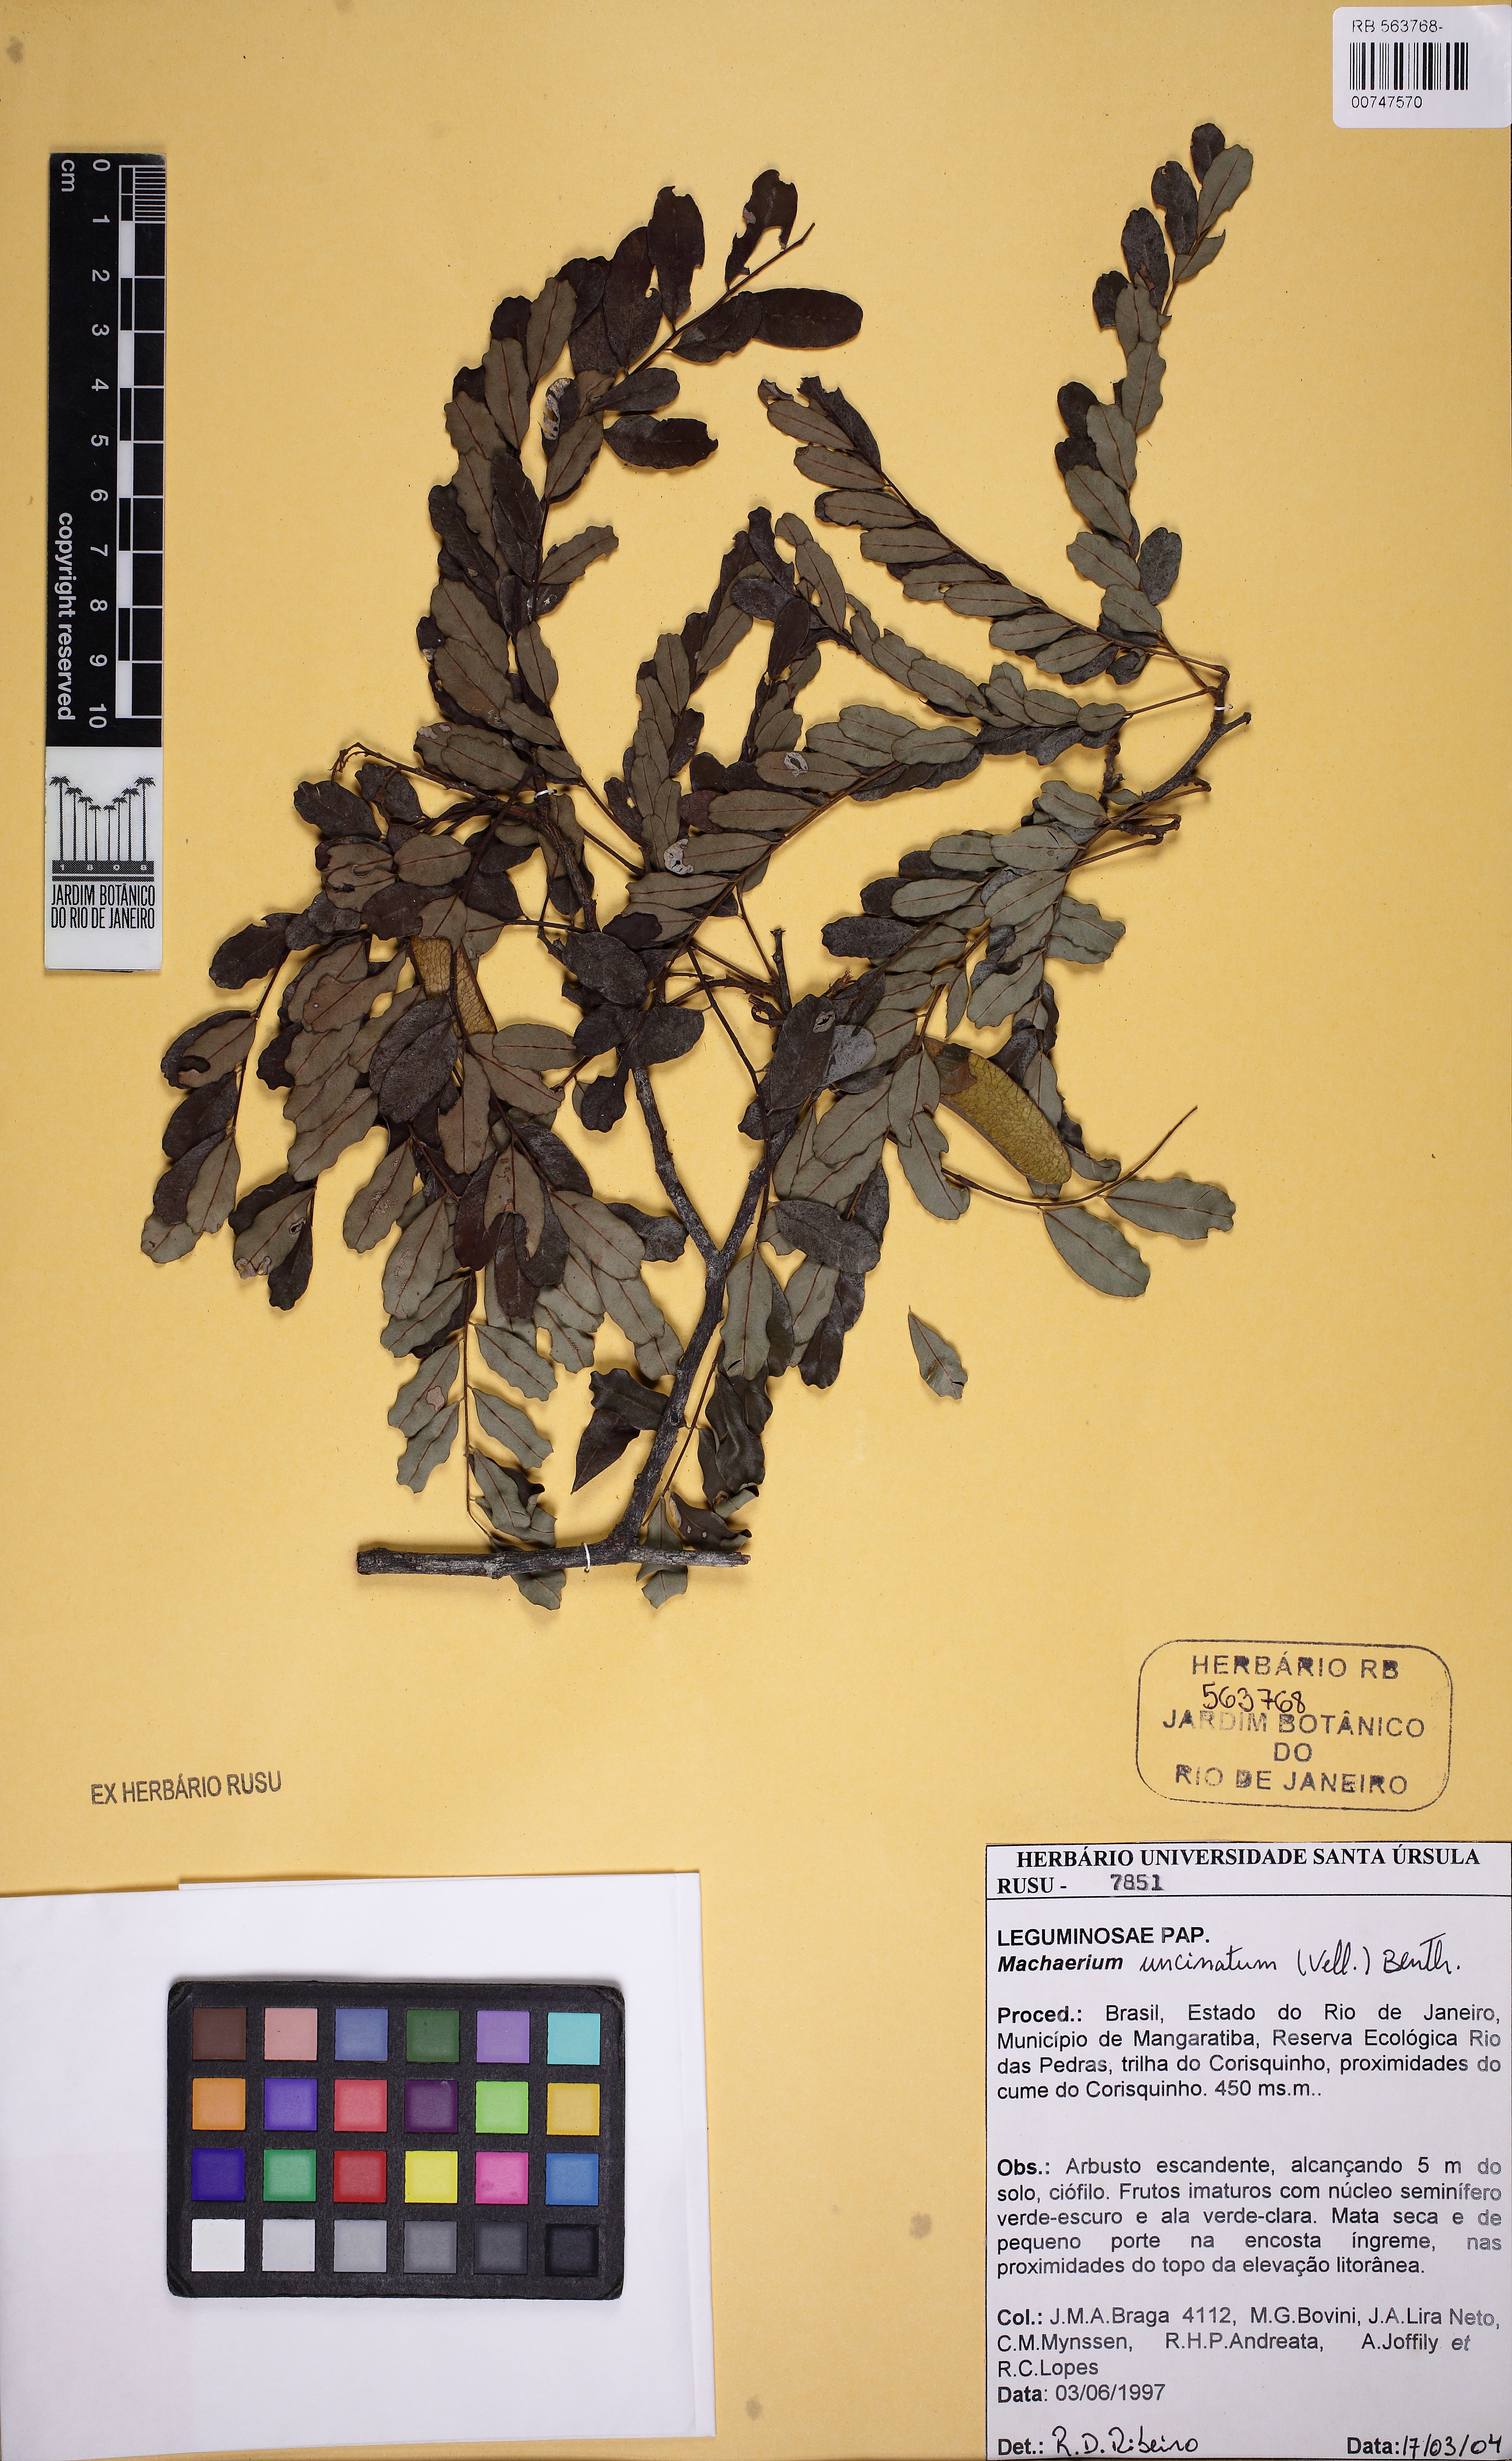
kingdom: Plantae
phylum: Tracheophyta
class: Magnoliopsida
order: Fabales
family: Fabaceae
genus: Machaerium
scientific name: Machaerium uncinatum
